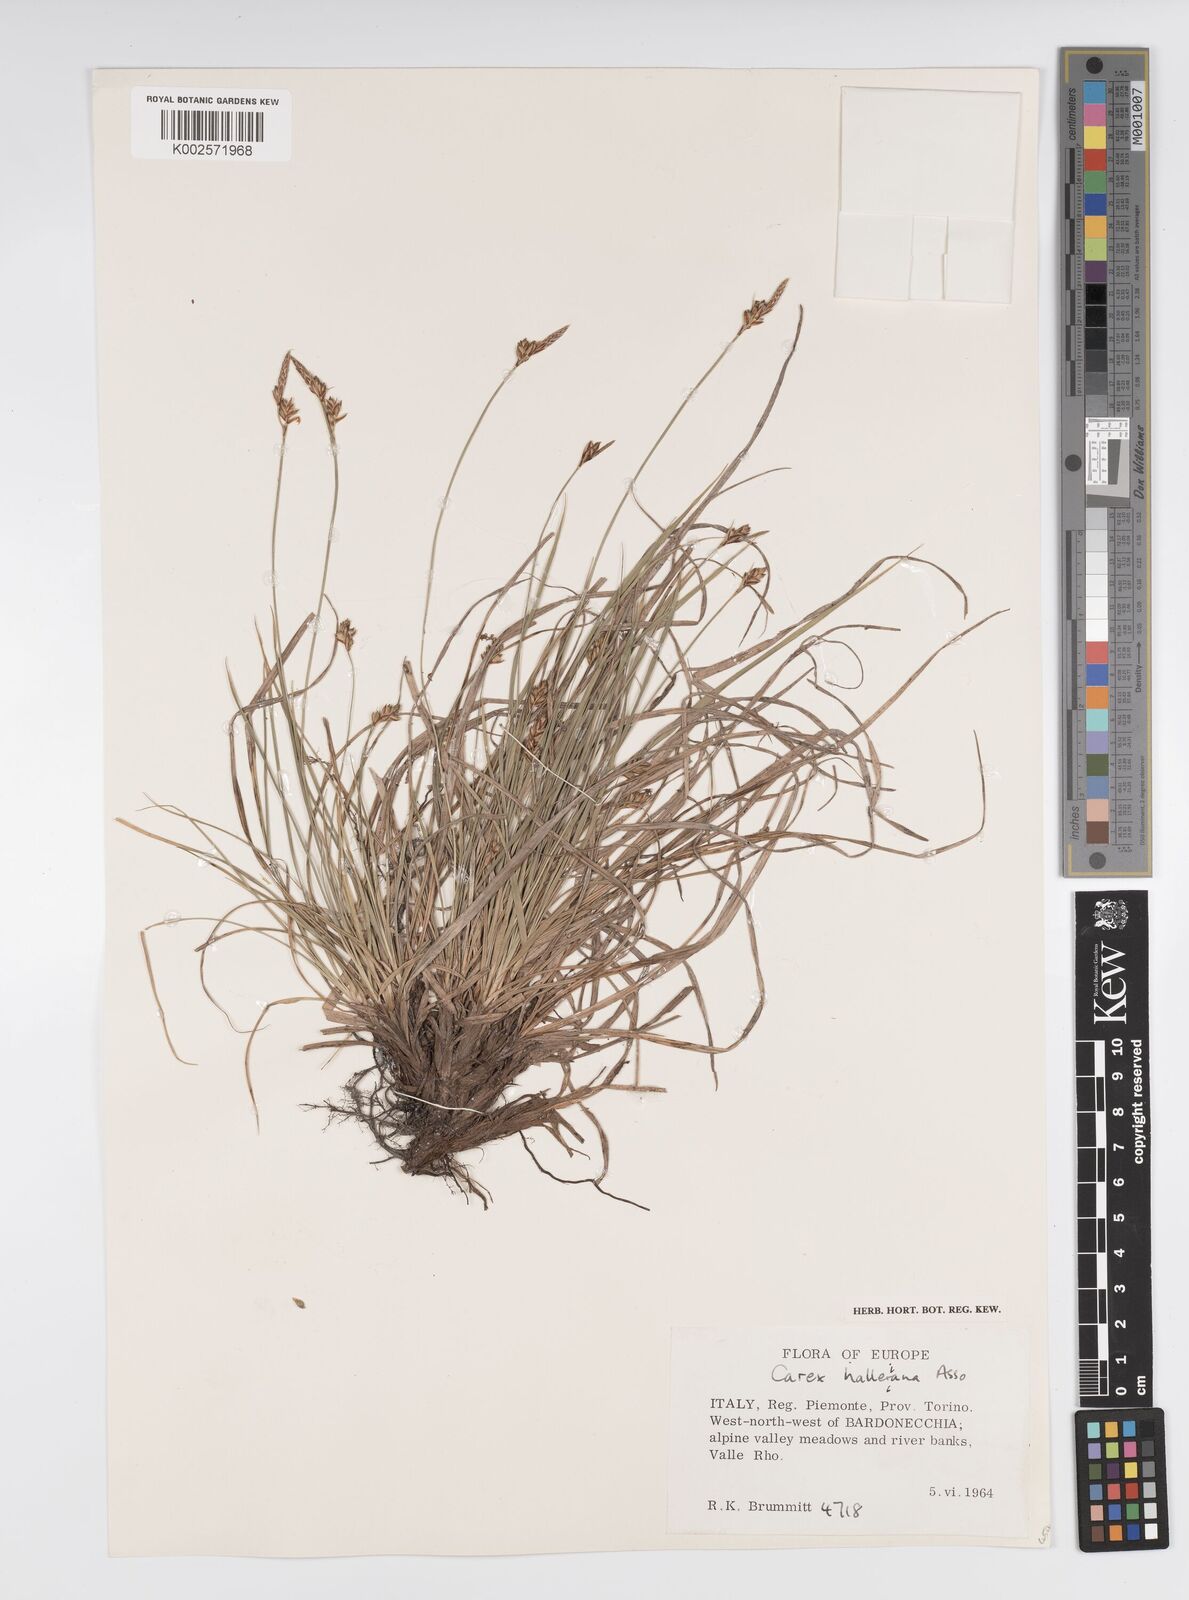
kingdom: Plantae
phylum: Tracheophyta
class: Liliopsida
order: Poales
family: Cyperaceae
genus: Carex
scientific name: Carex halleriana
